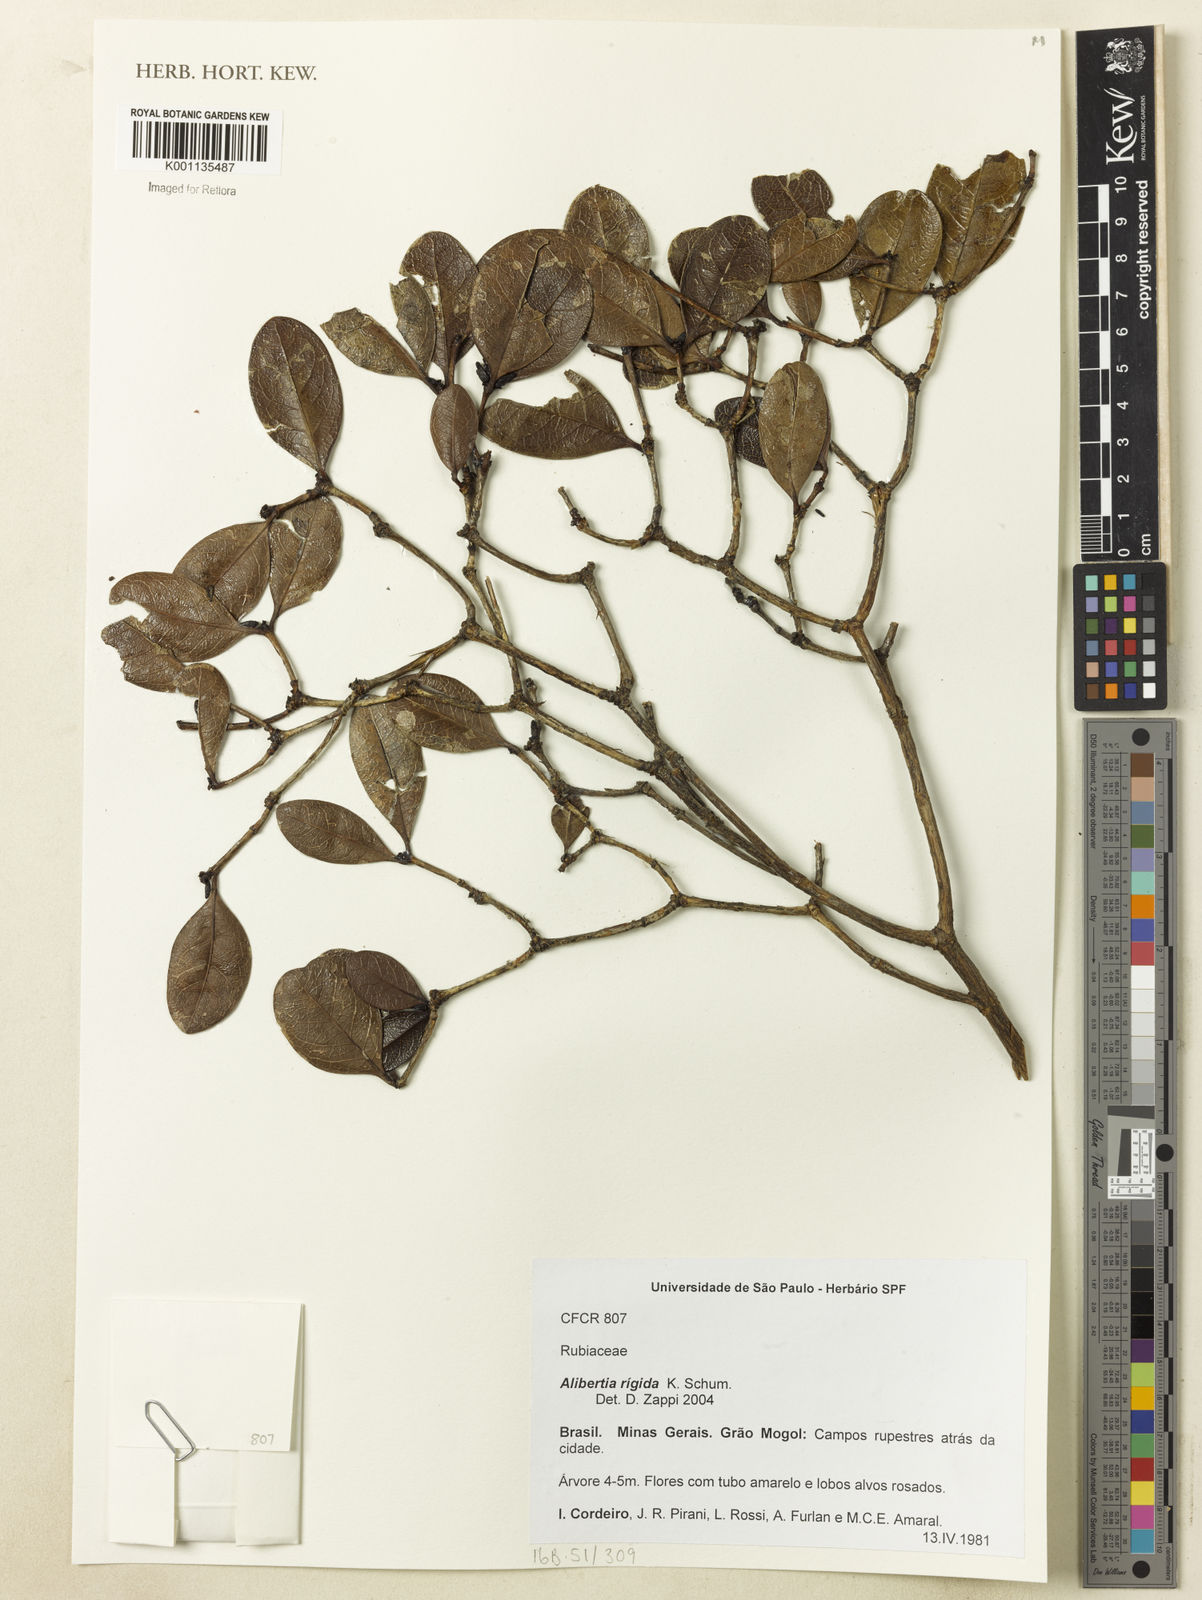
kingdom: Plantae
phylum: Tracheophyta
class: Magnoliopsida
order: Gentianales
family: Rubiaceae
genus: Cordiera
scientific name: Cordiera rigida
